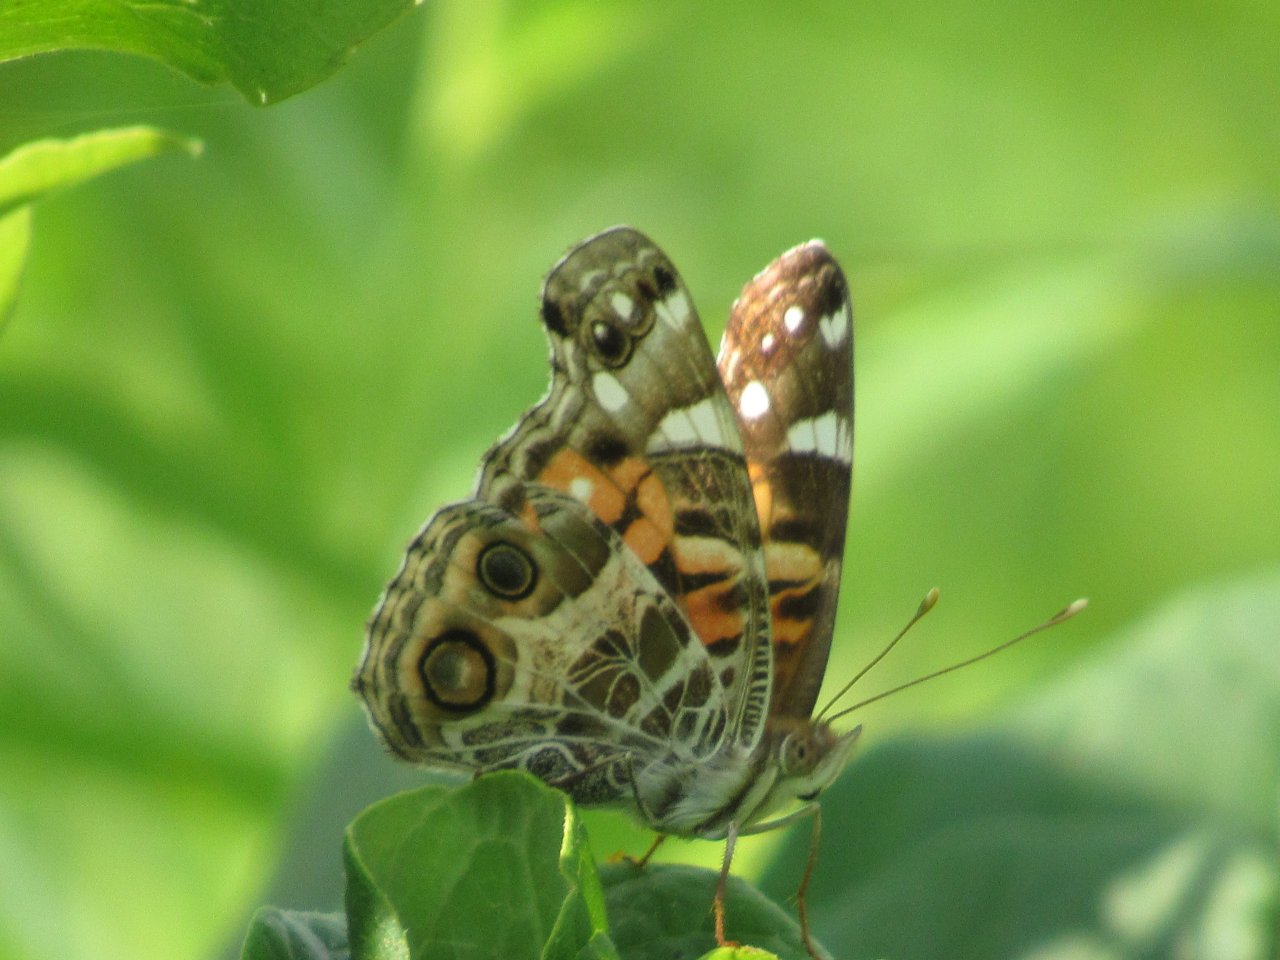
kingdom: Animalia
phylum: Arthropoda
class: Insecta
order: Lepidoptera
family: Nymphalidae
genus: Vanessa
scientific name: Vanessa virginiensis
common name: American Lady
